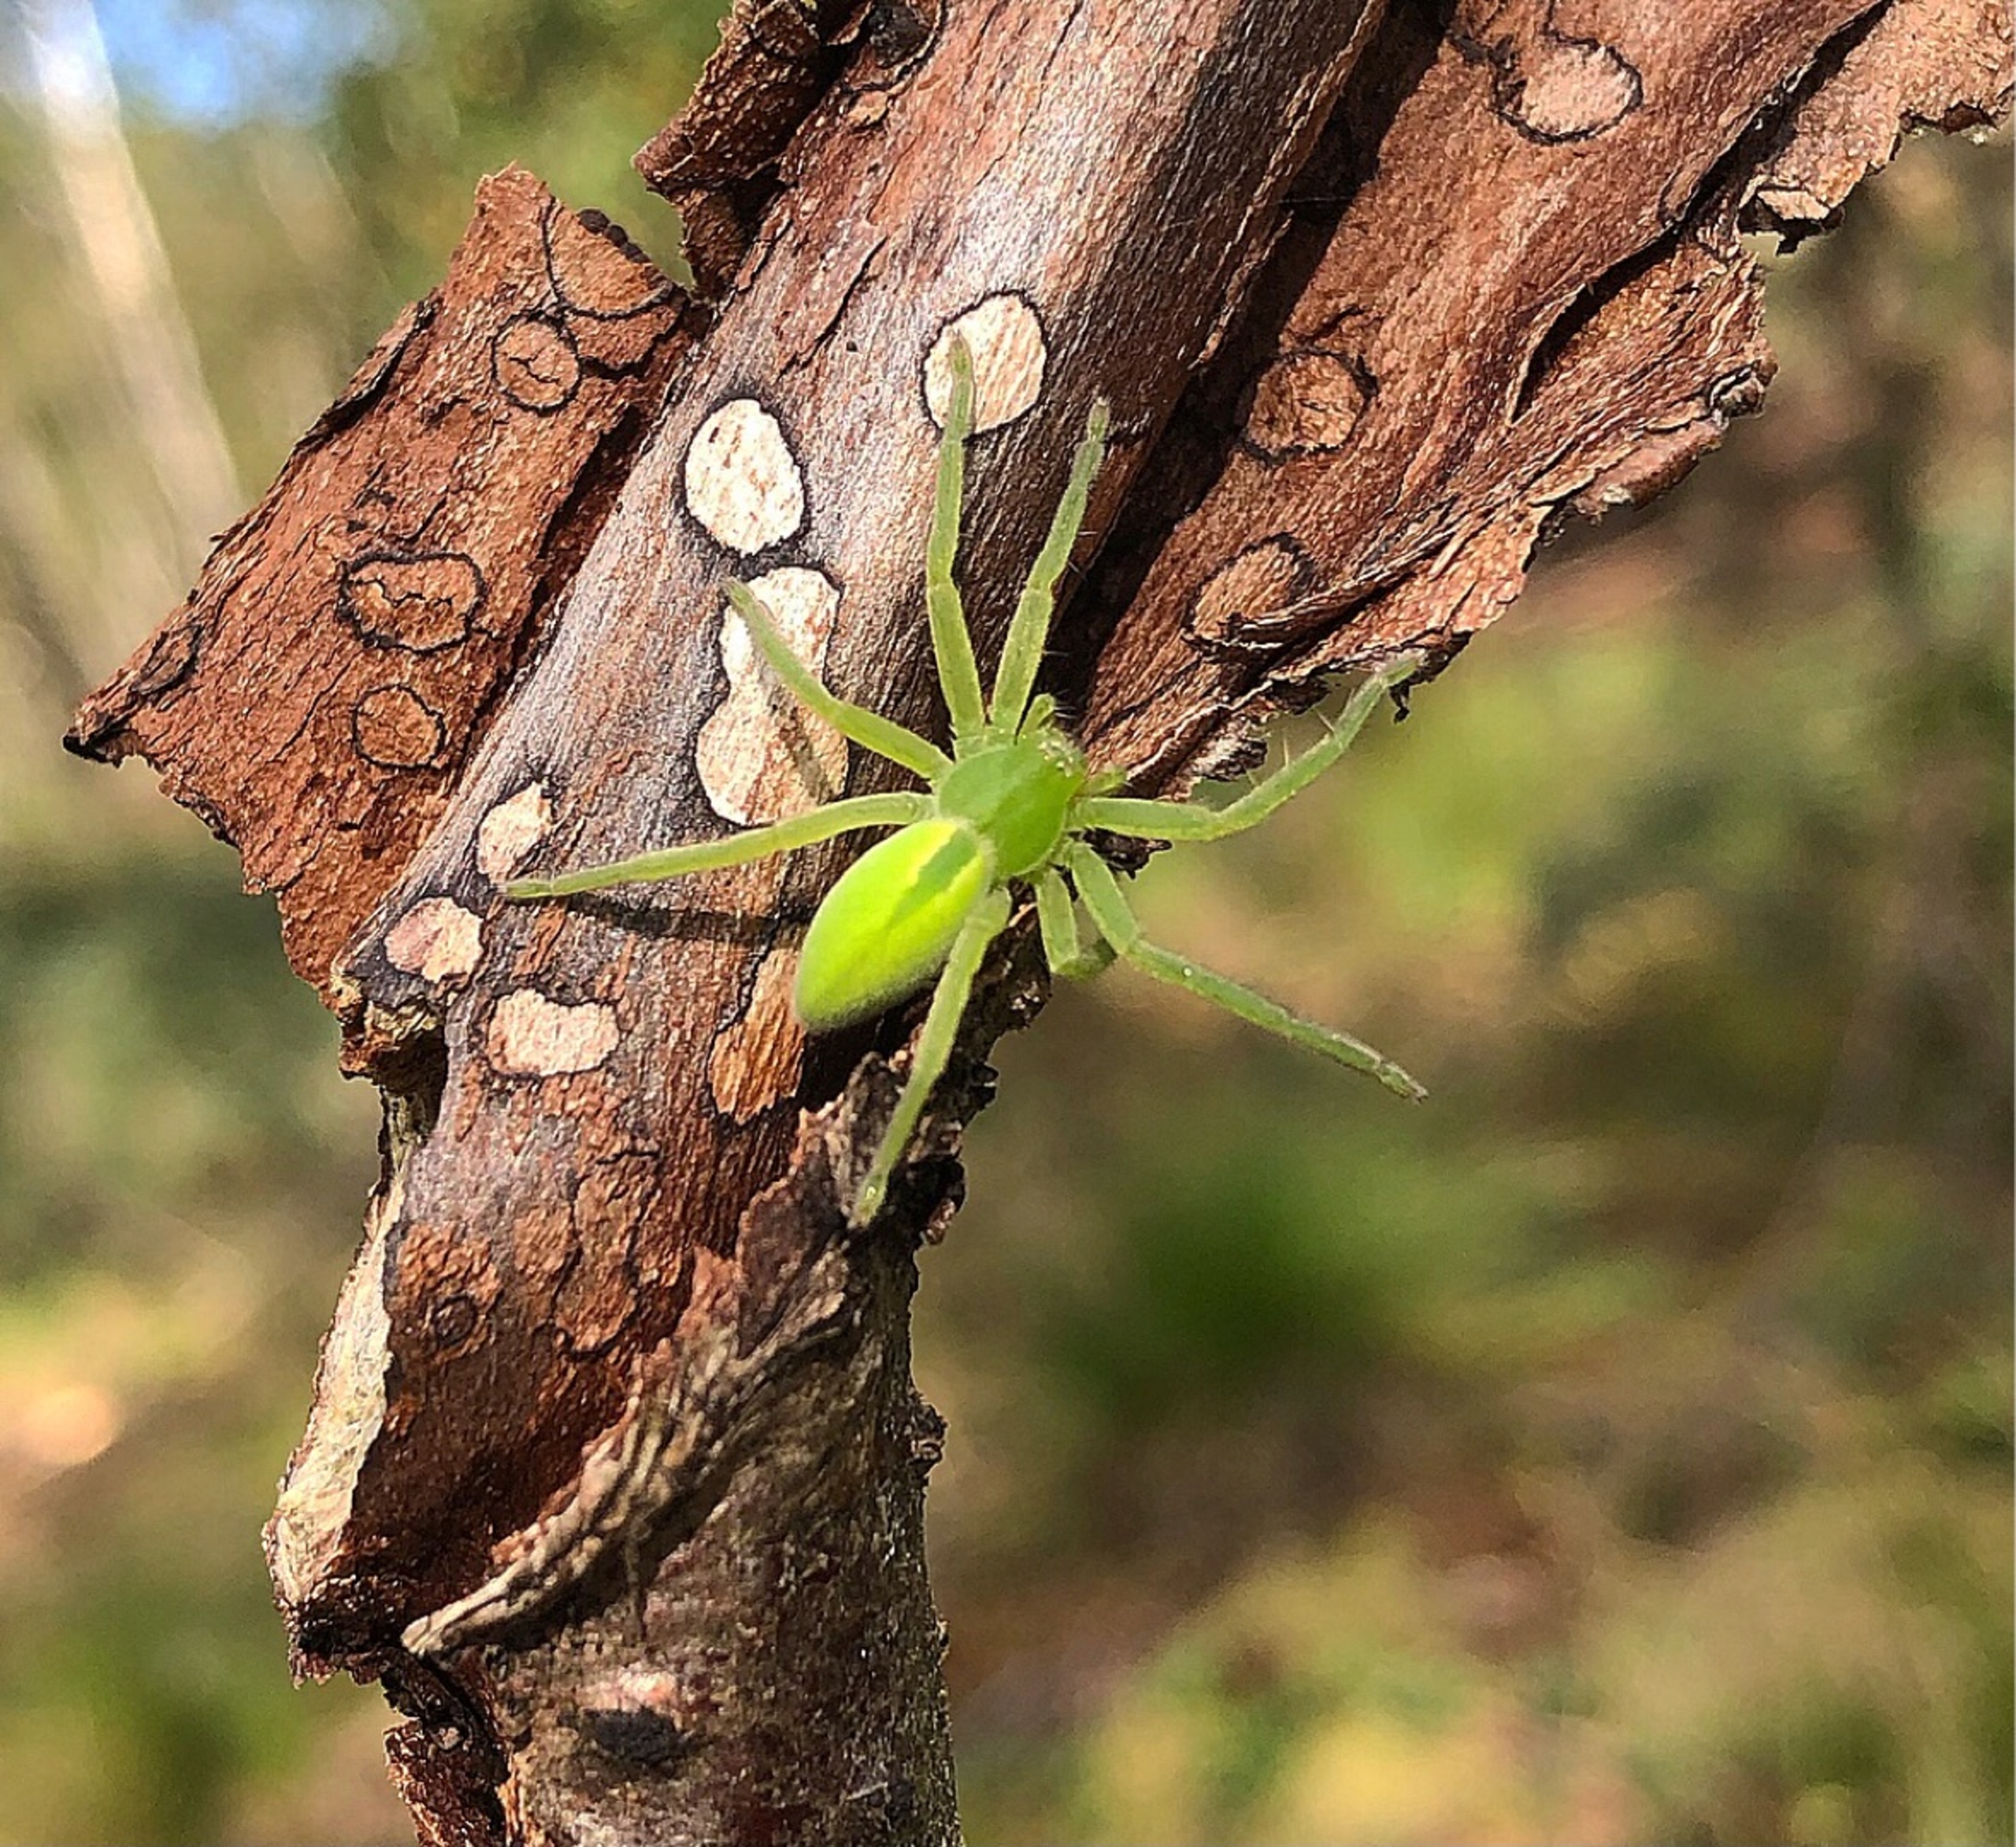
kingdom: Animalia
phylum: Arthropoda
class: Arachnida
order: Araneae
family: Sparassidae
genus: Micrommata
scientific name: Micrommata virescens
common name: Smaragdedderkop
